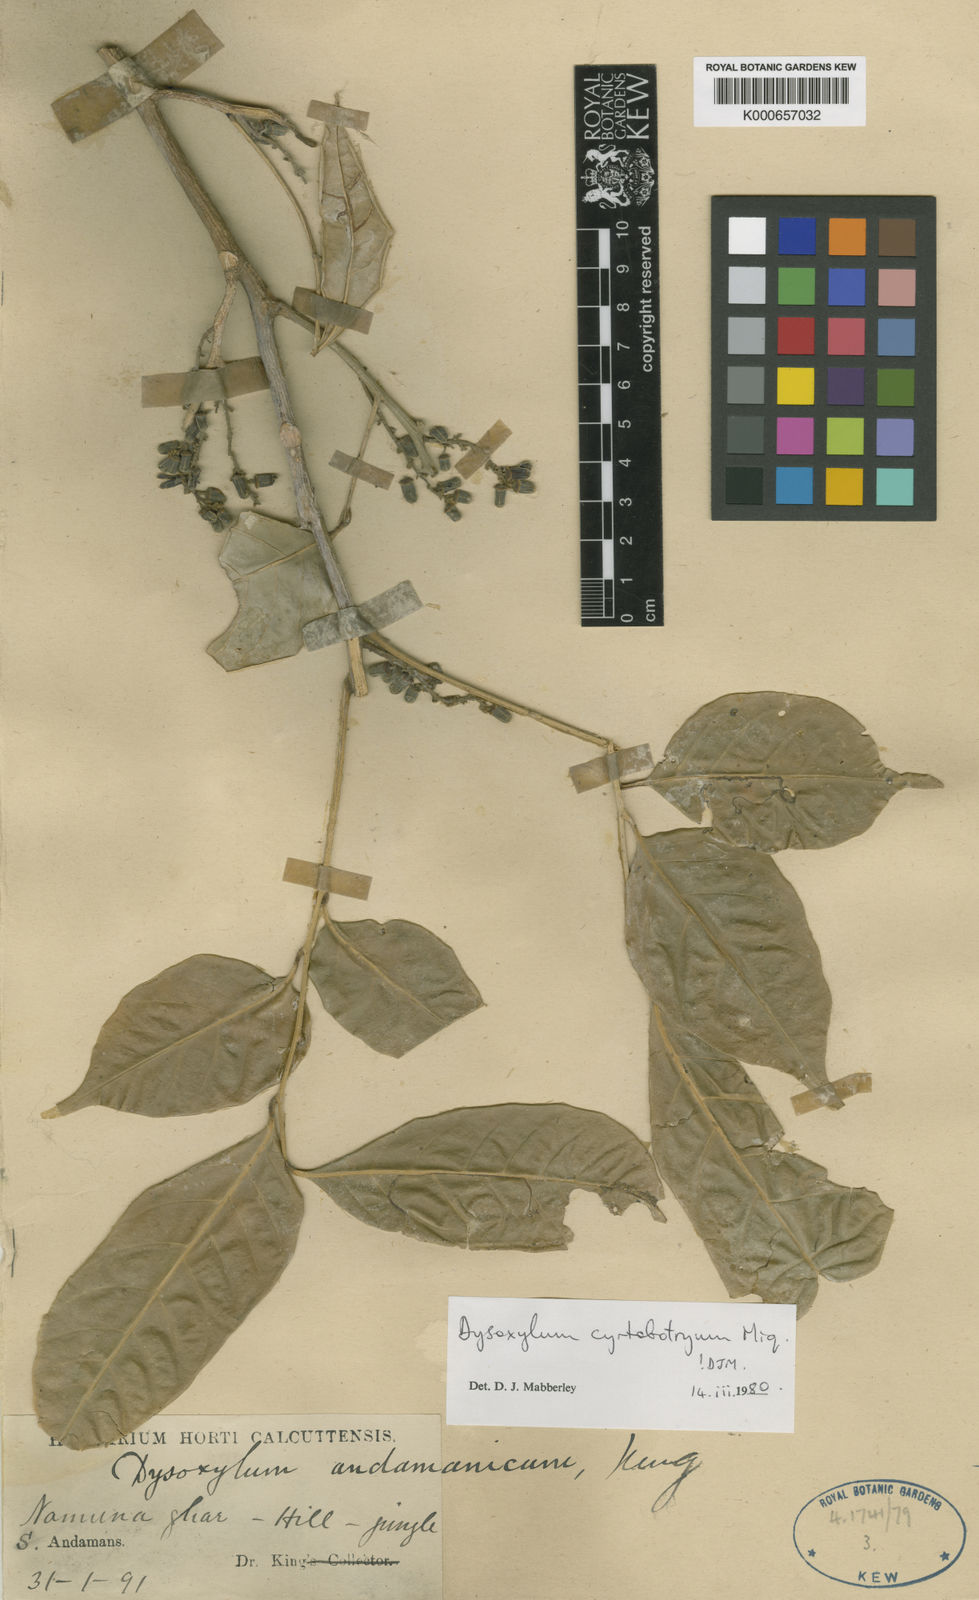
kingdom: Plantae
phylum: Tracheophyta
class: Magnoliopsida
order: Sapindales
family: Meliaceae
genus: Dysoxylum
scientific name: Dysoxylum cyrtobotryum
